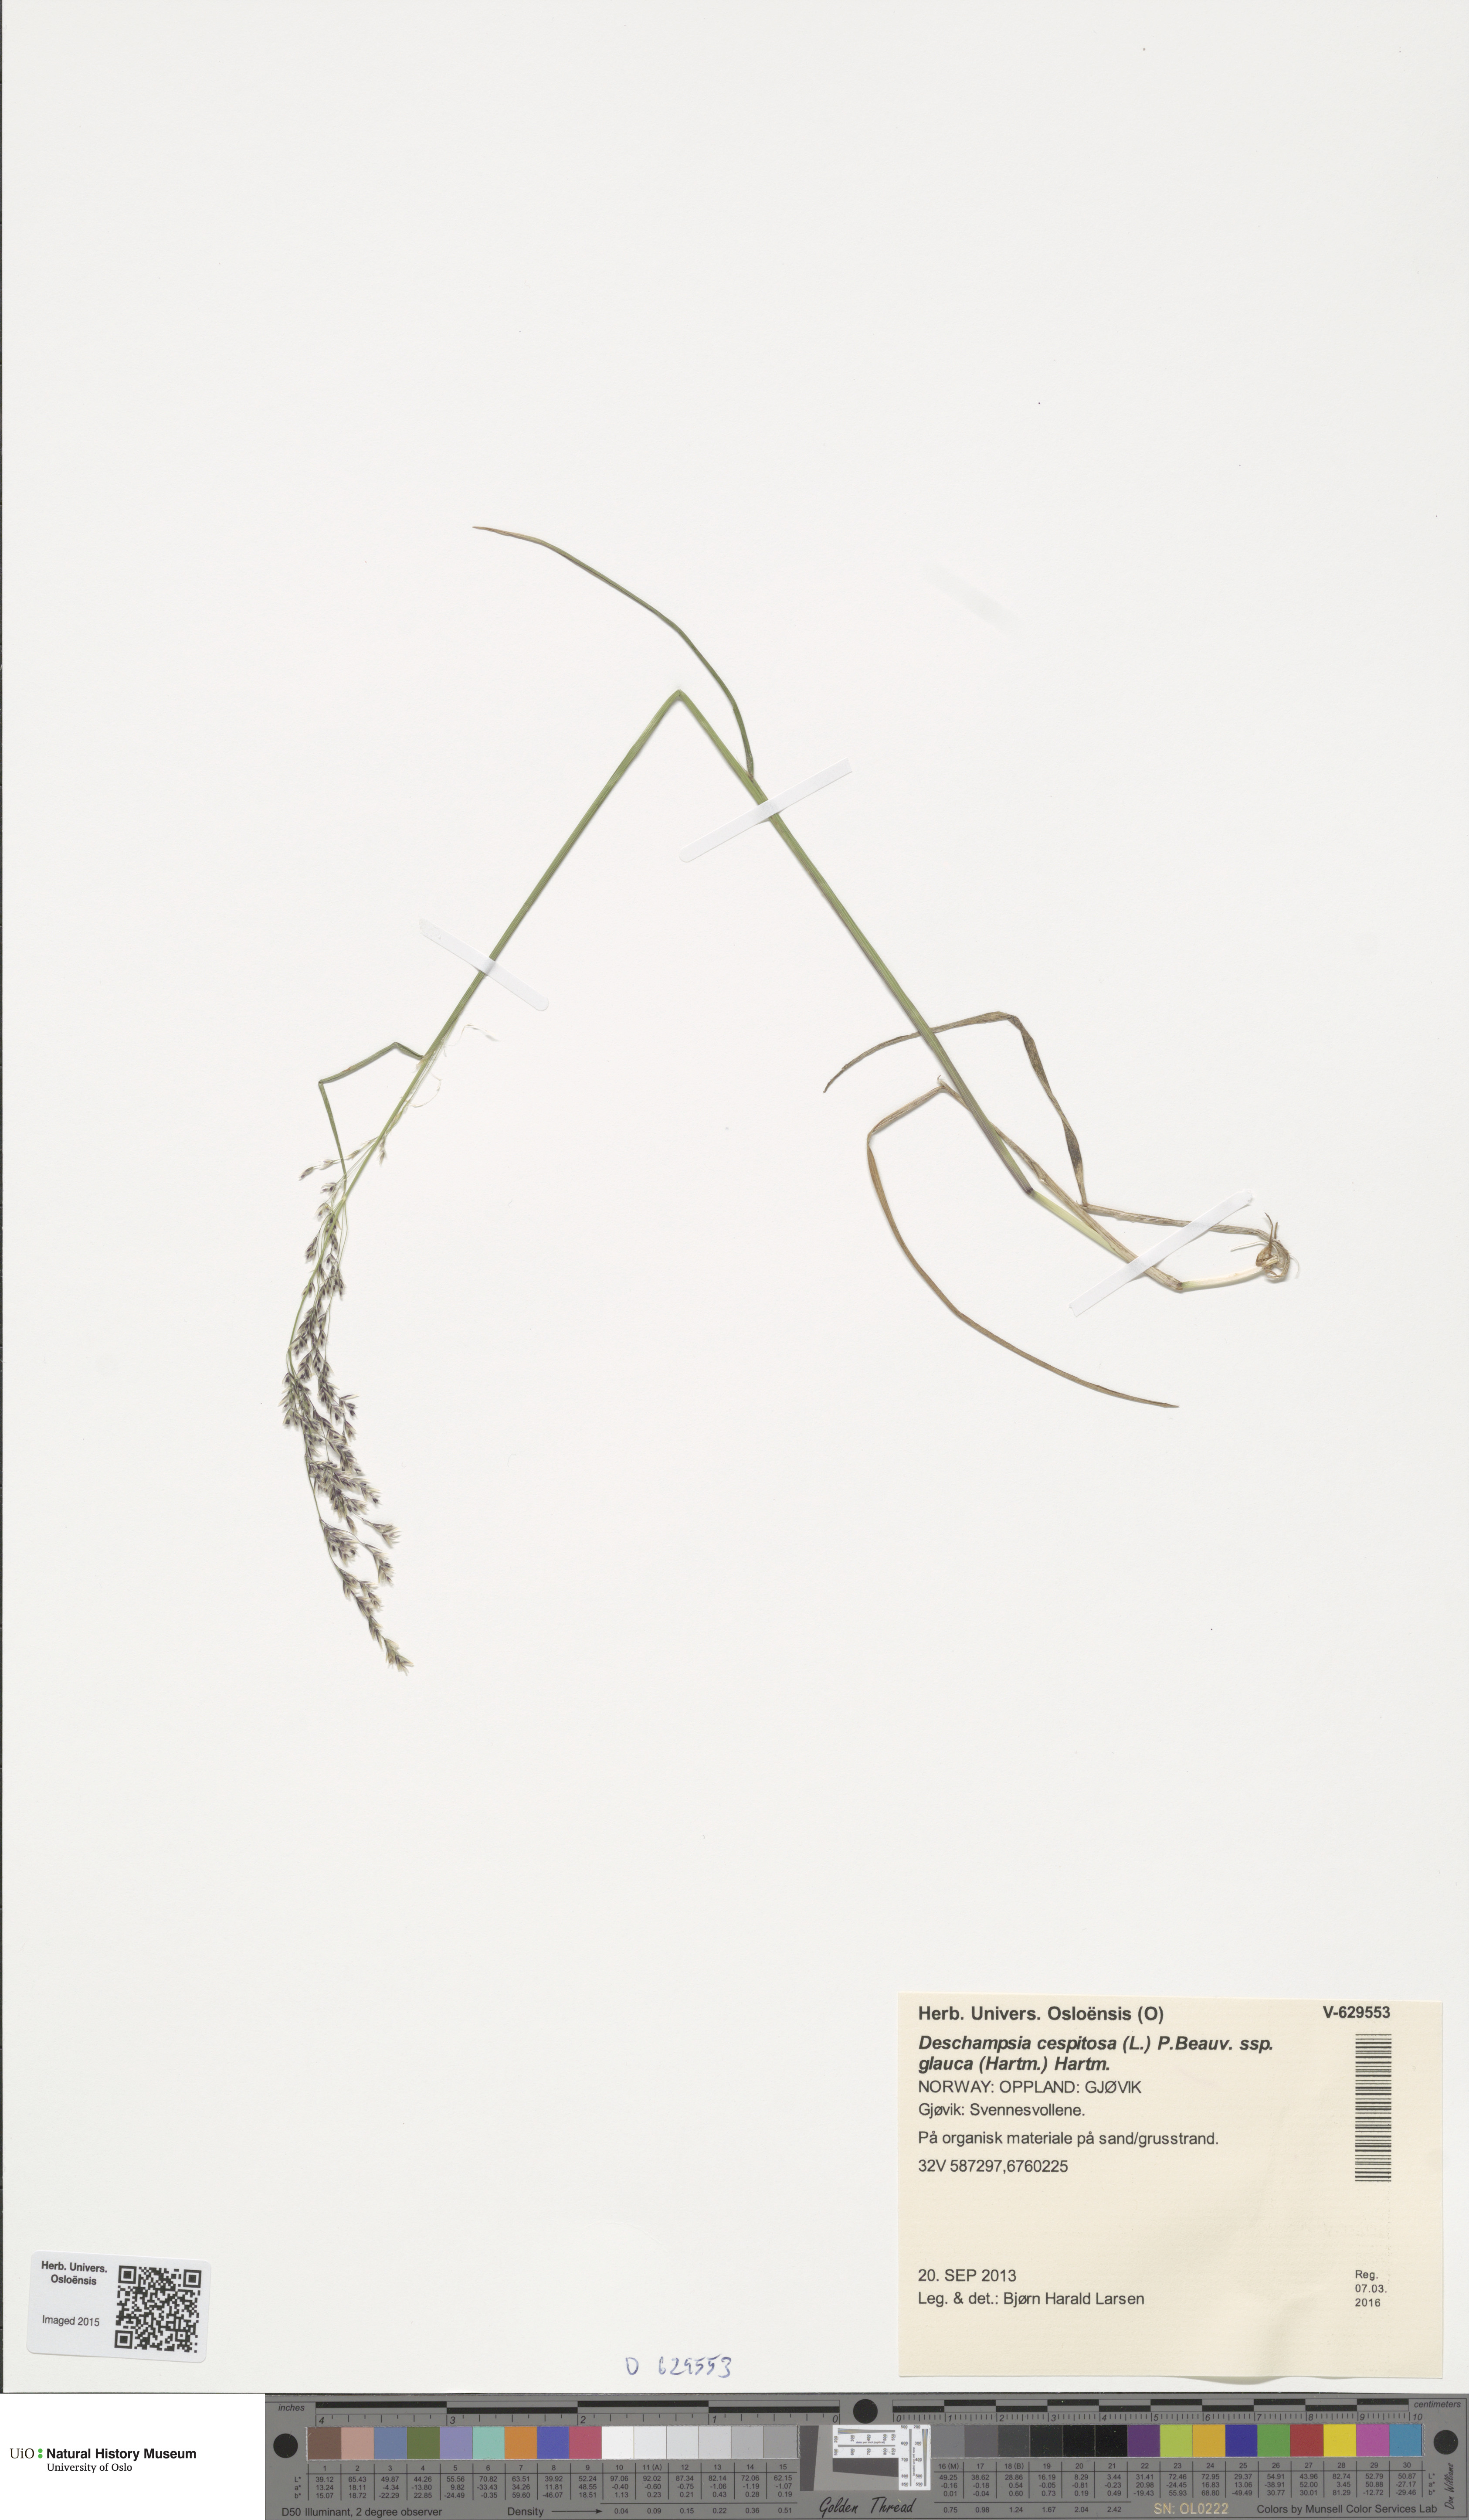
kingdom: Plantae
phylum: Tracheophyta
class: Liliopsida
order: Poales
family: Poaceae
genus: Deschampsia
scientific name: Deschampsia cespitosa
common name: Tufted hair-grass
